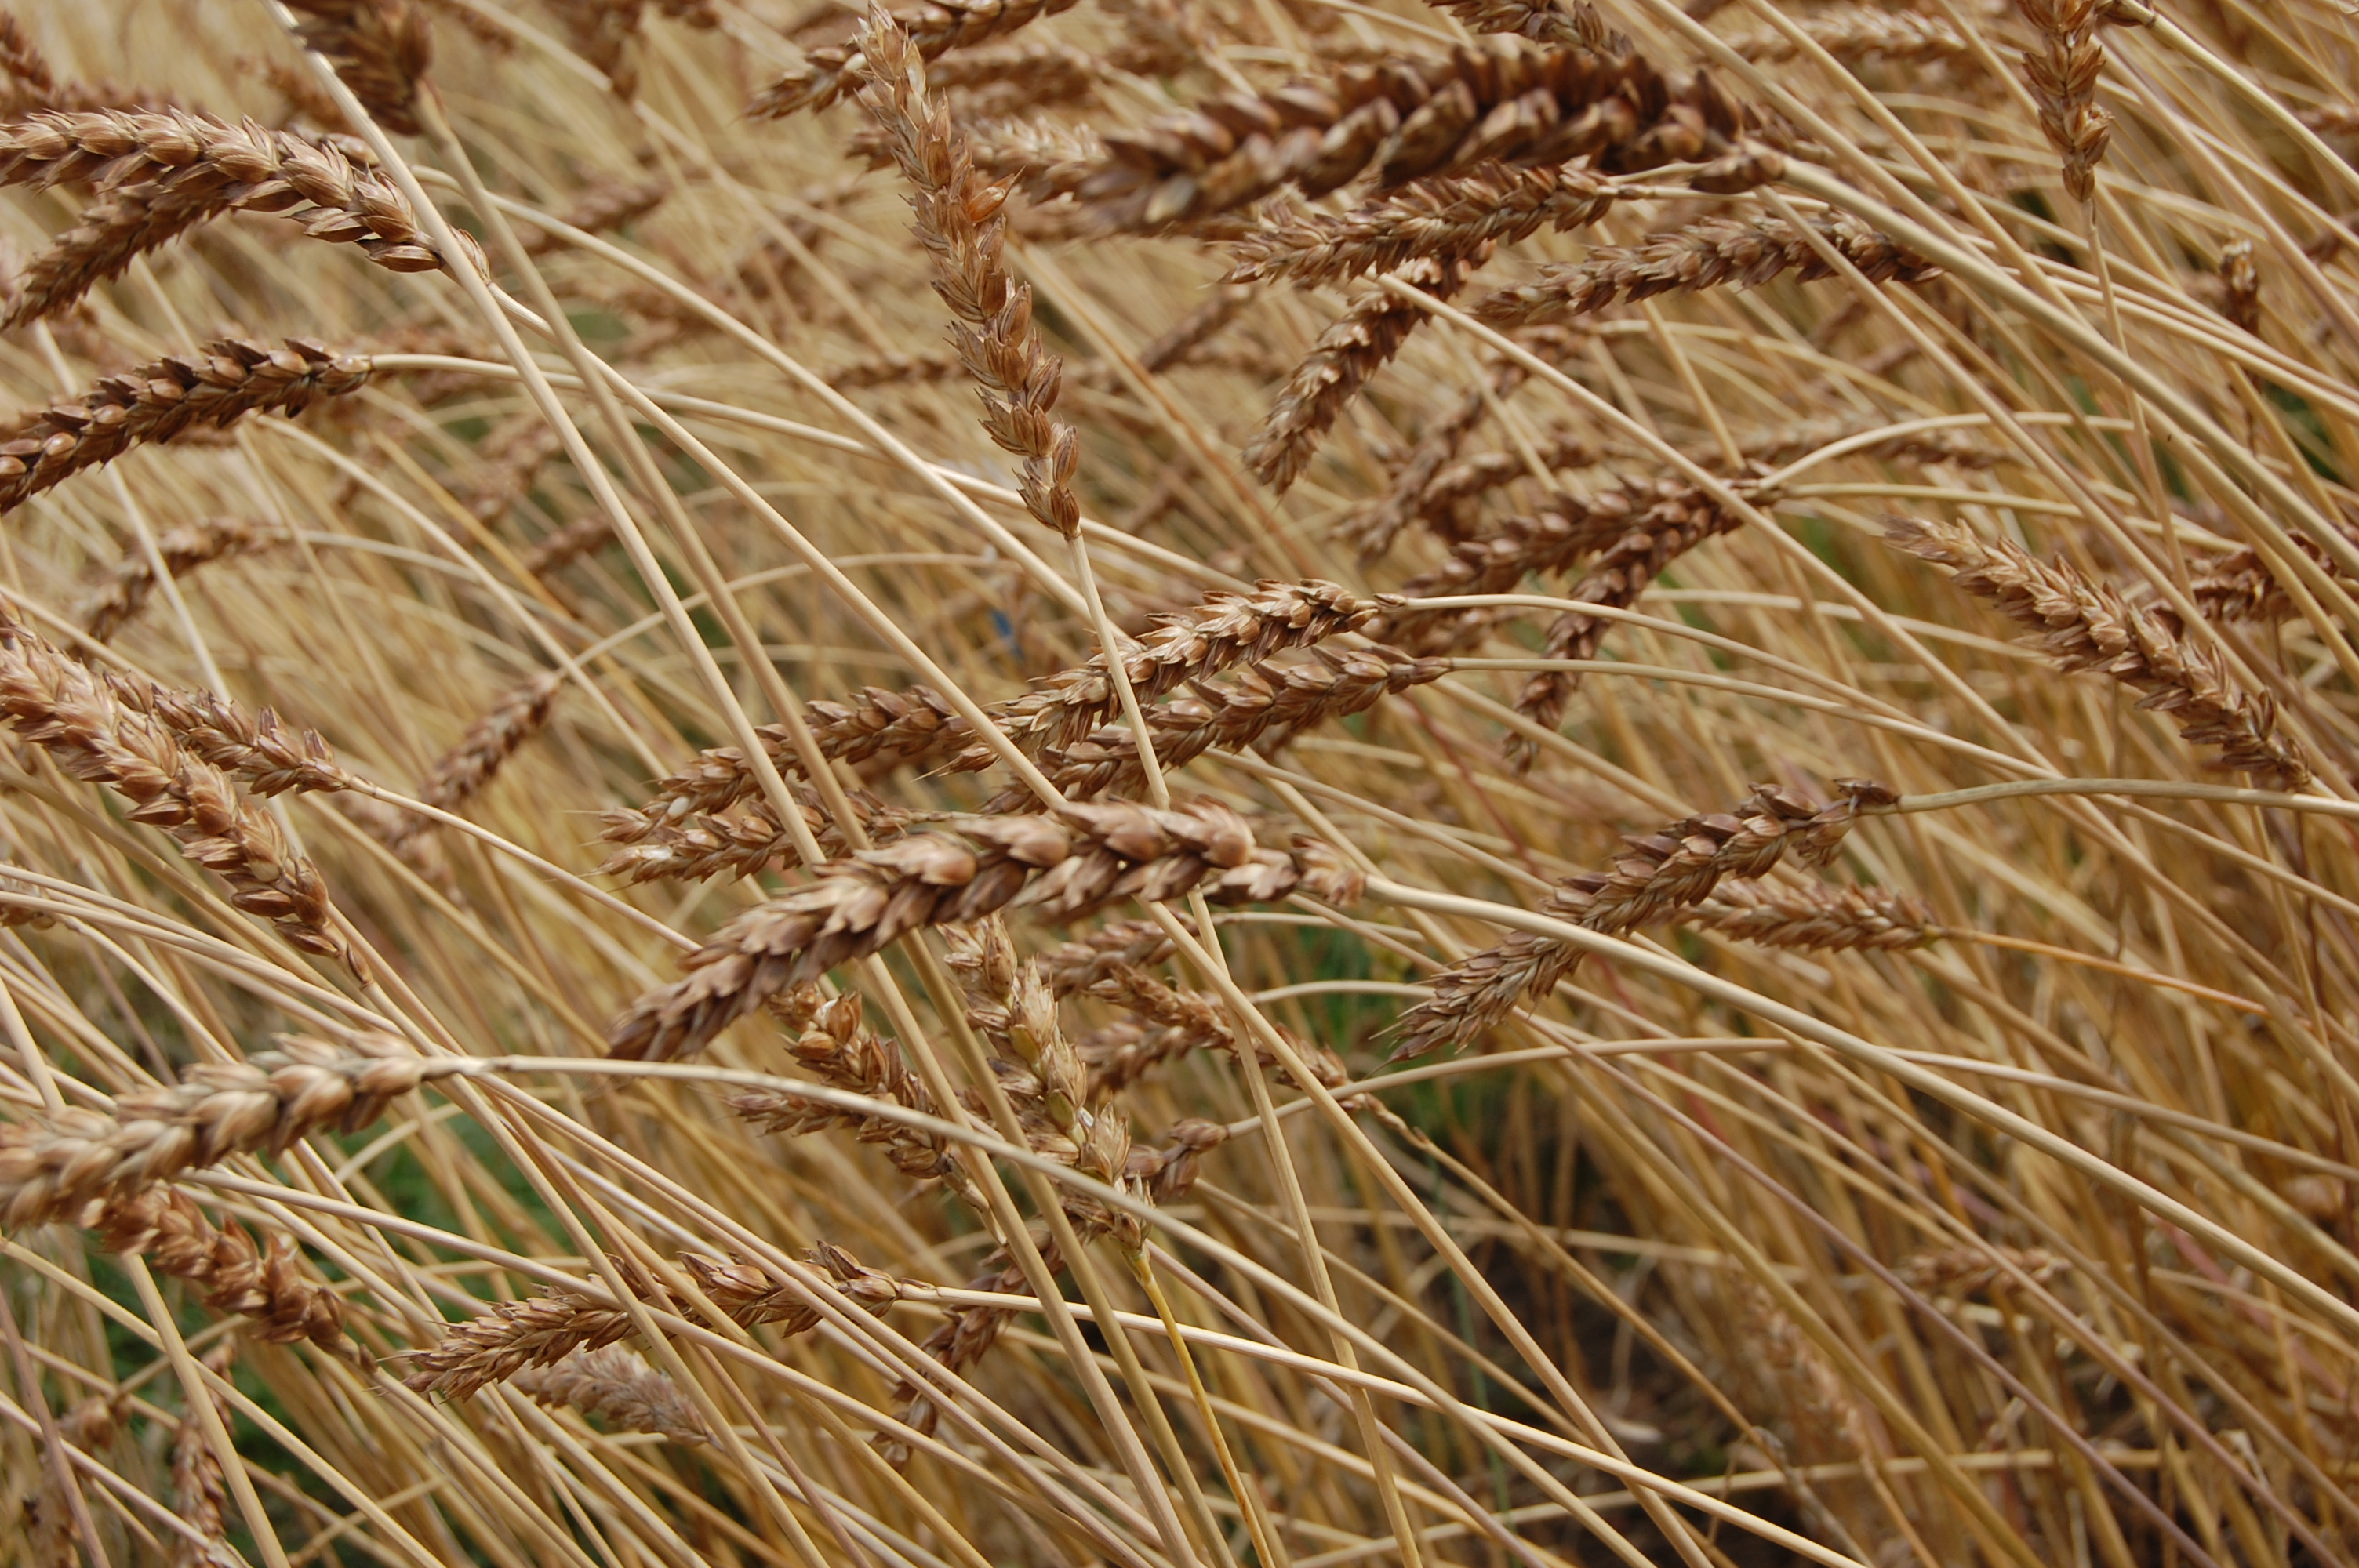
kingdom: Plantae
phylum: Tracheophyta
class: Liliopsida
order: Poales
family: Poaceae
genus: Triticum
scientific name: Triticum aestivum
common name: Common wheat
